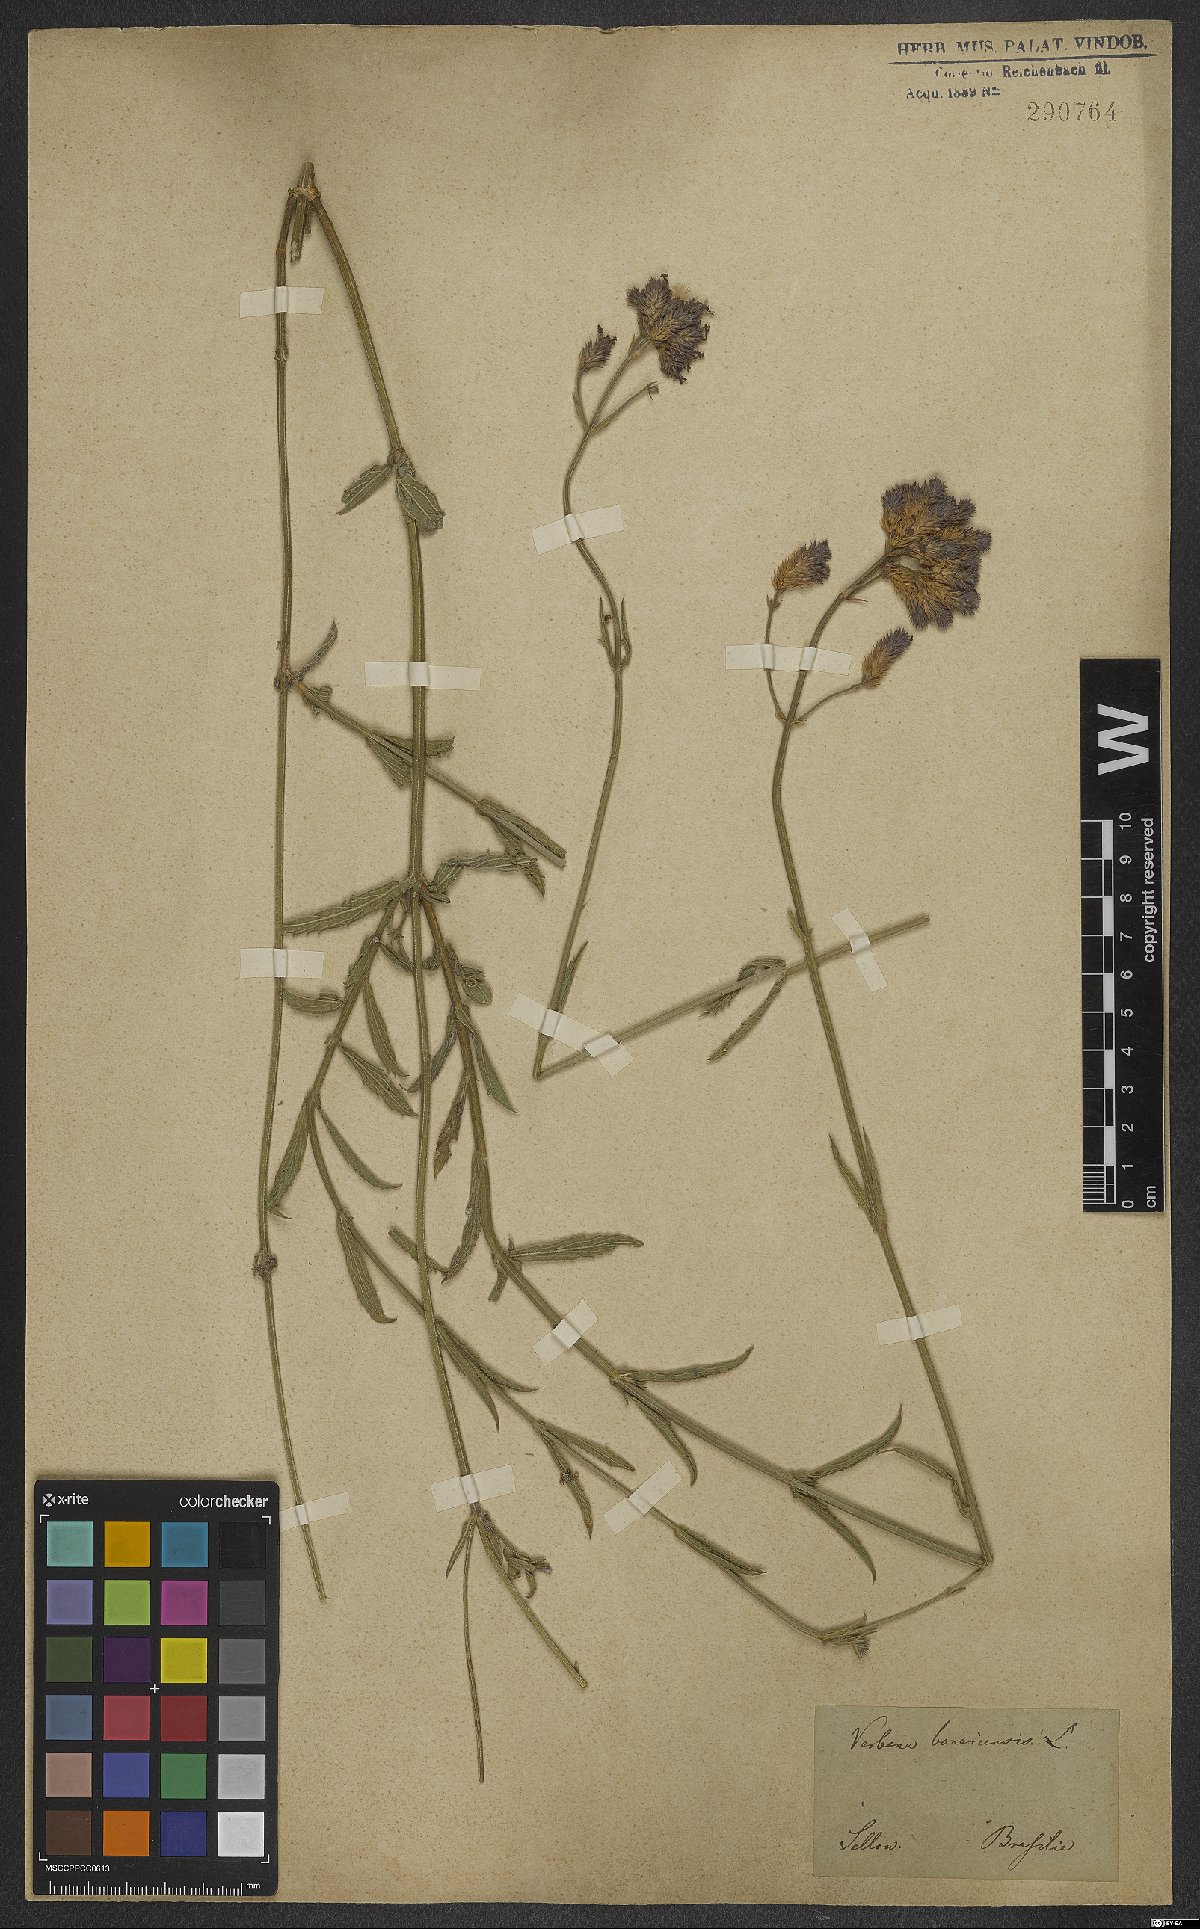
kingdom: Plantae
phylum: Tracheophyta
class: Magnoliopsida
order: Lamiales
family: Verbenaceae
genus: Verbena
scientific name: Verbena bonariensis
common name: Purpletop vervain
